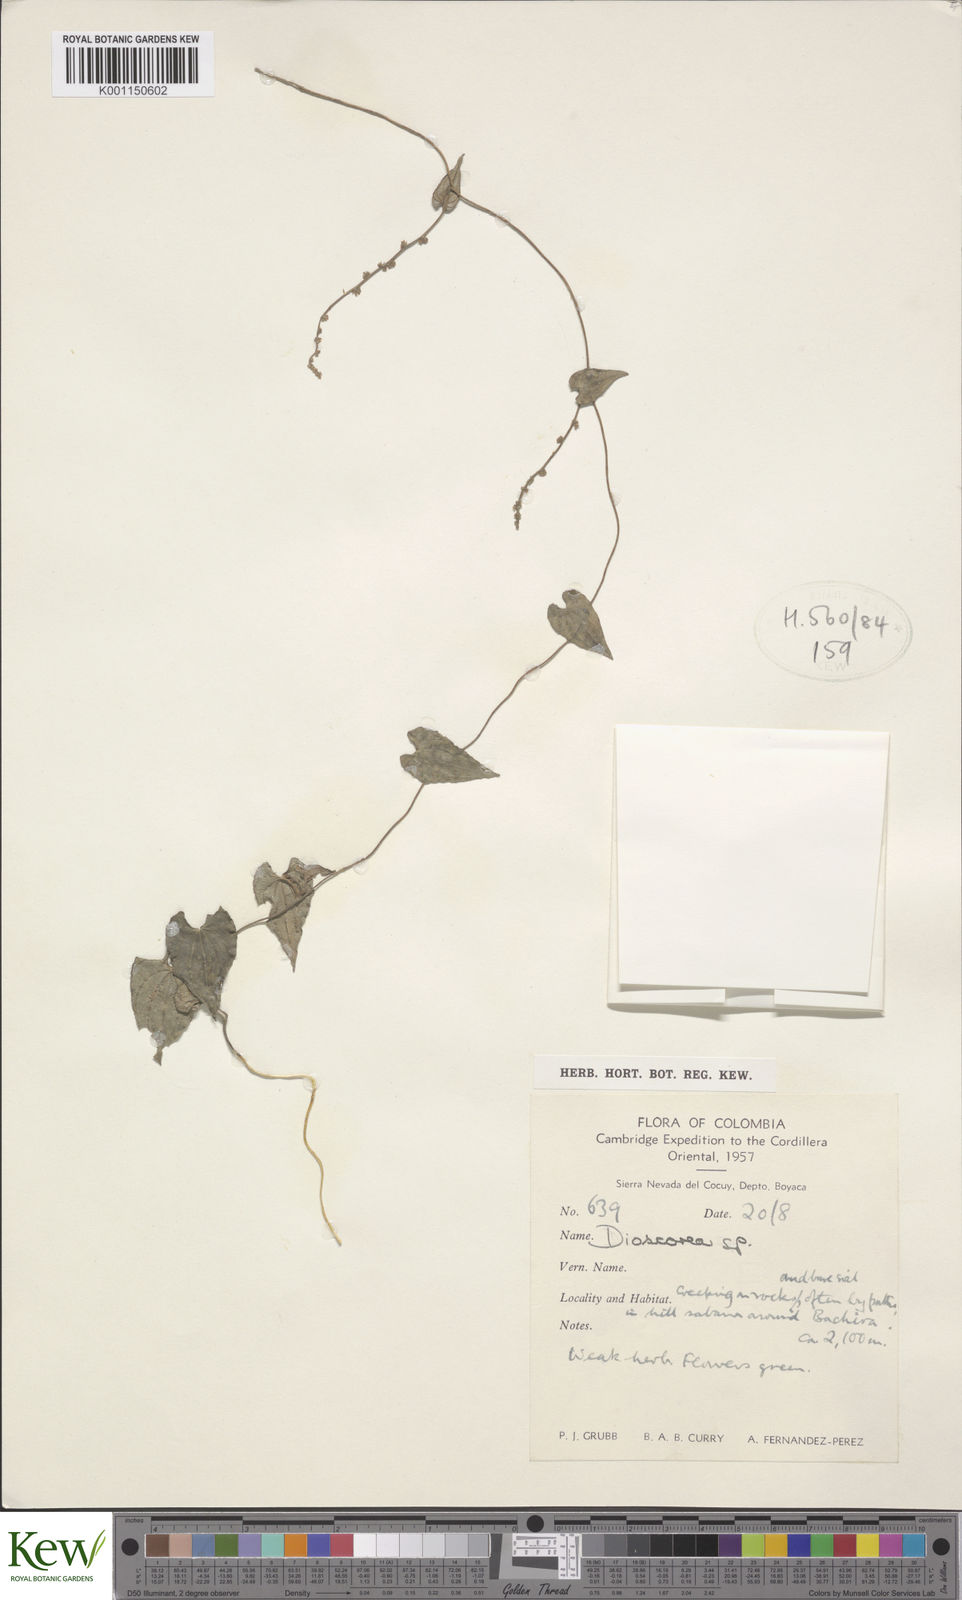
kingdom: Plantae
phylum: Tracheophyta
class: Liliopsida
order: Dioscoreales
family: Dioscoreaceae
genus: Dioscorea
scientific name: Dioscorea
